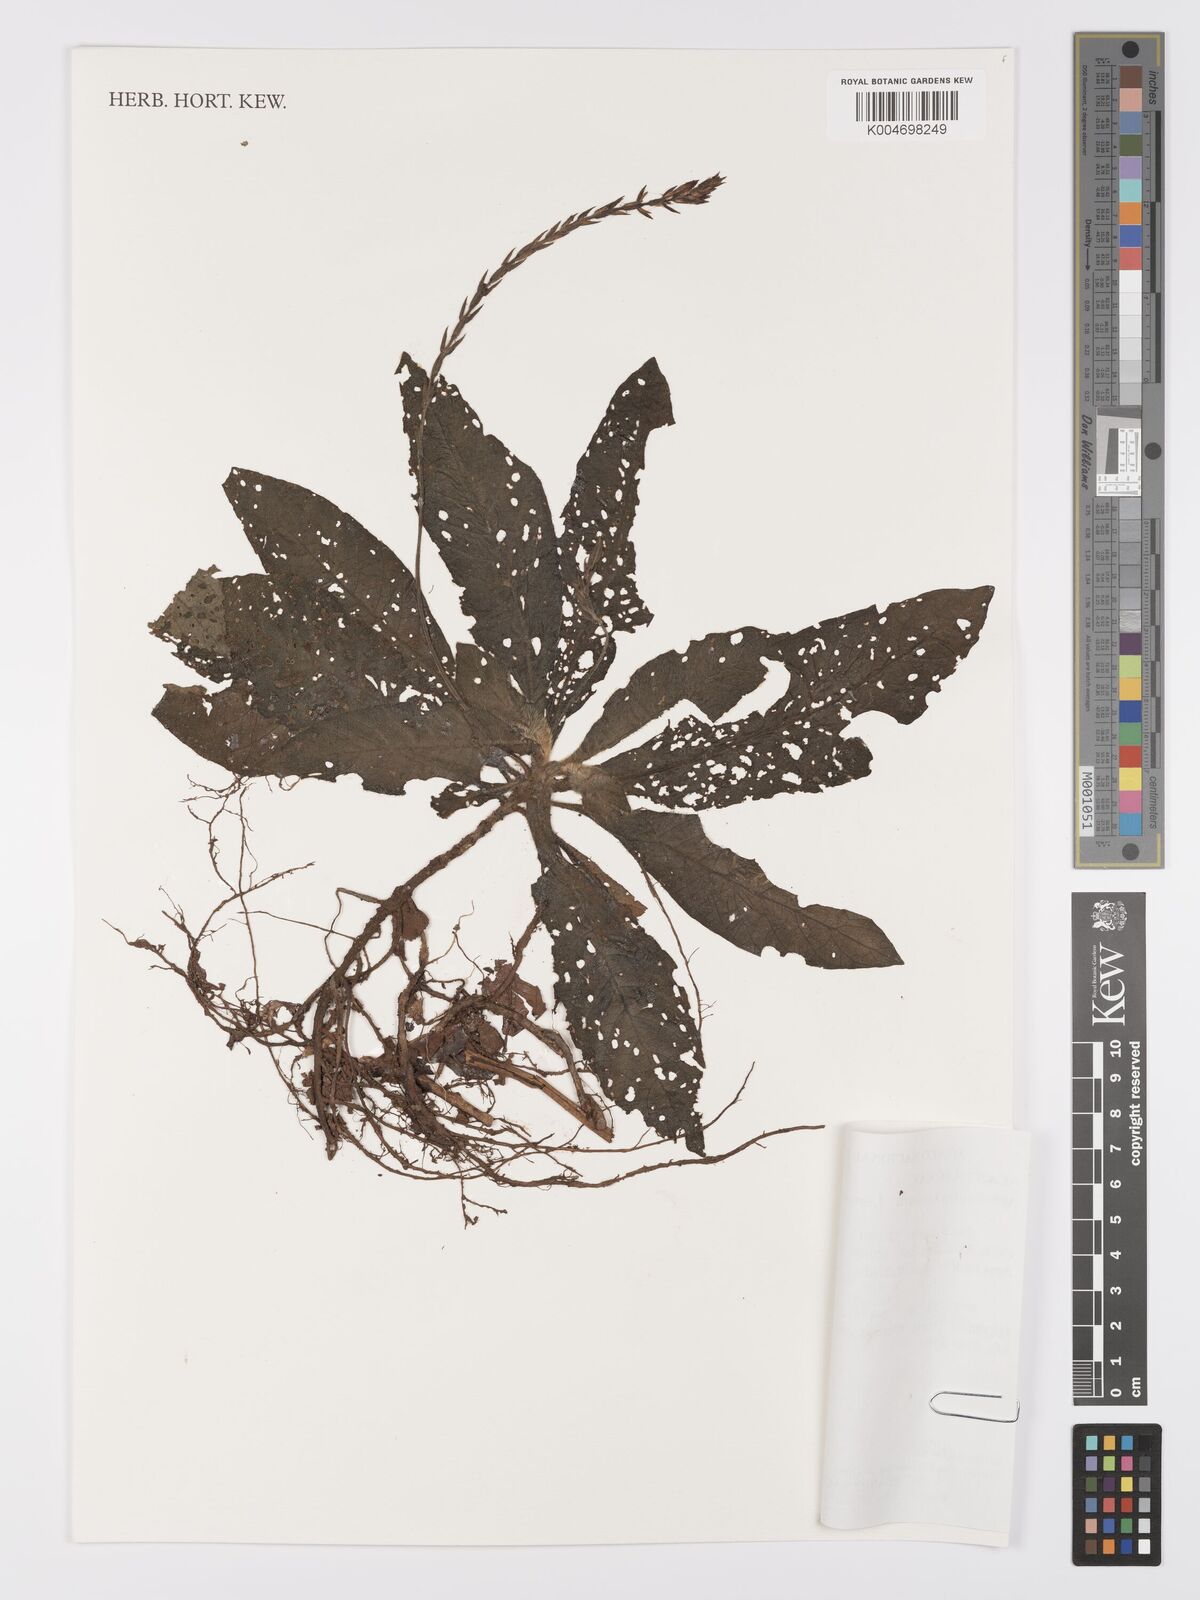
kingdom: Plantae
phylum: Tracheophyta
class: Magnoliopsida
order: Lamiales
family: Acanthaceae
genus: Aphelandra
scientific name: Aphelandra tonduzii
